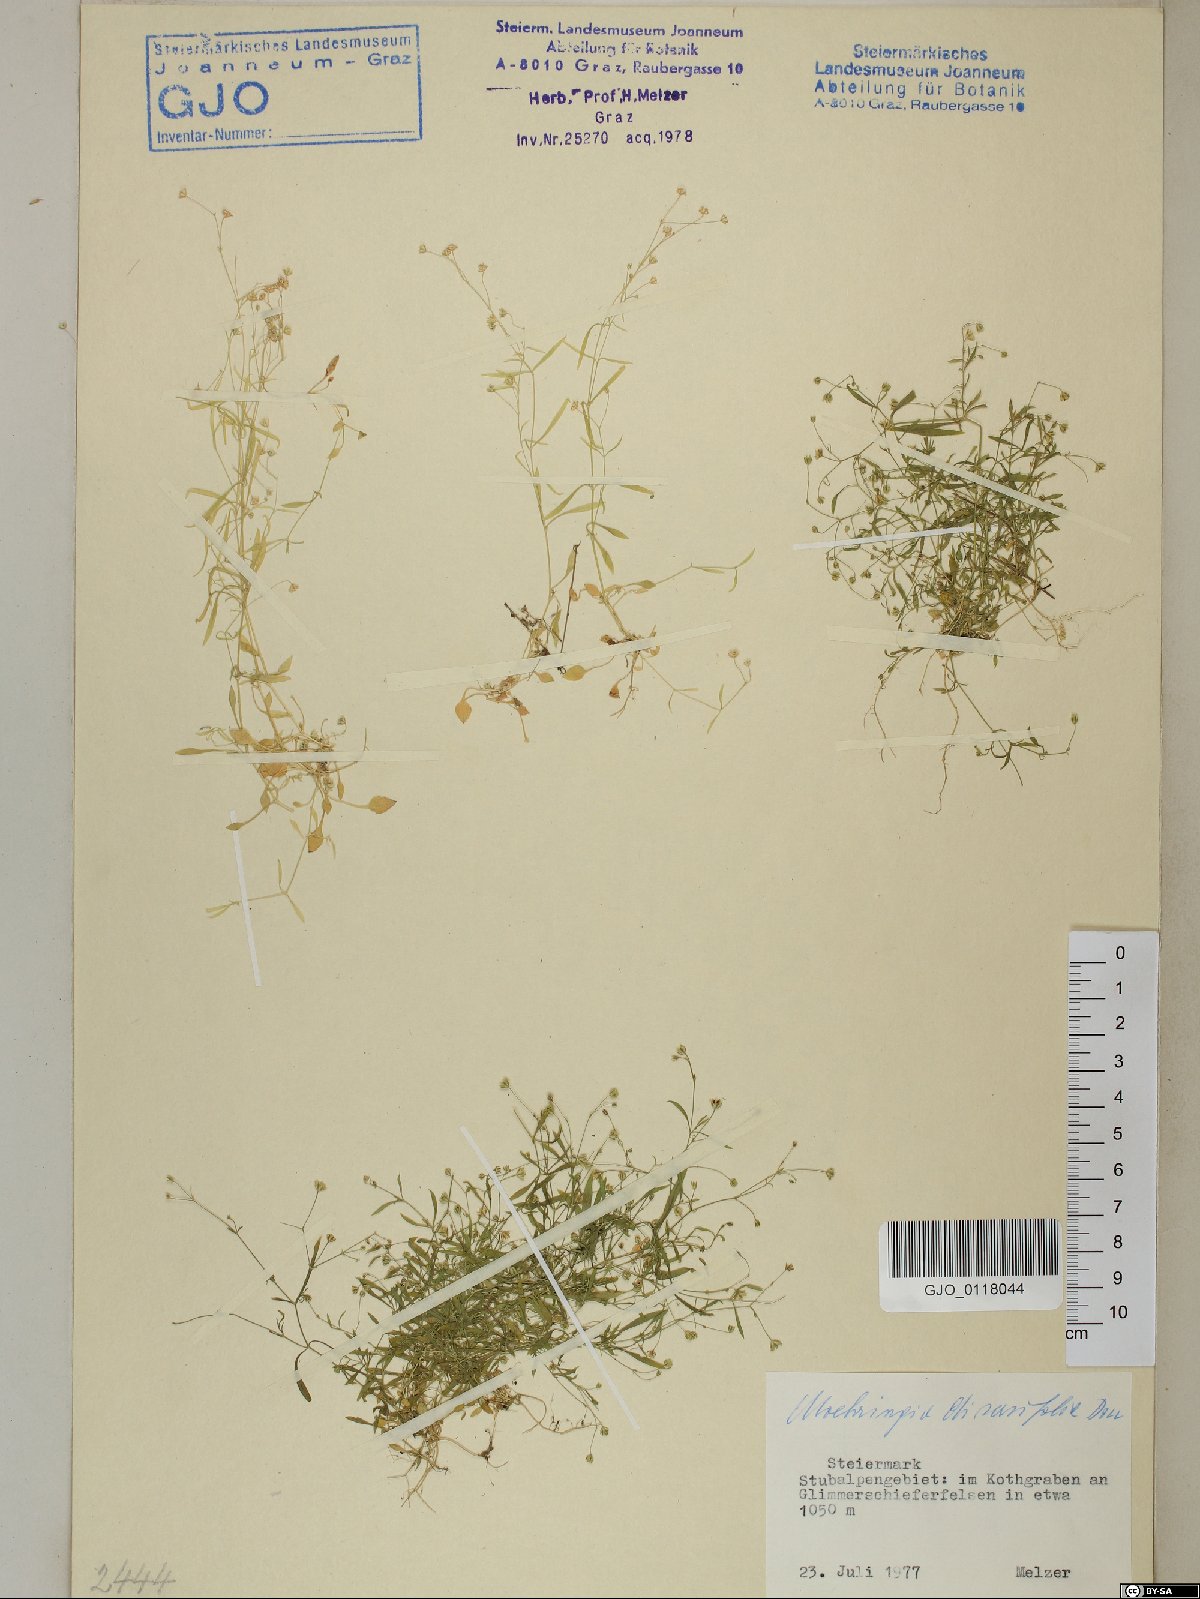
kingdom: Plantae
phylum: Tracheophyta
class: Magnoliopsida
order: Caryophyllales
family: Caryophyllaceae
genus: Moehringia
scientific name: Moehringia diversifolia
